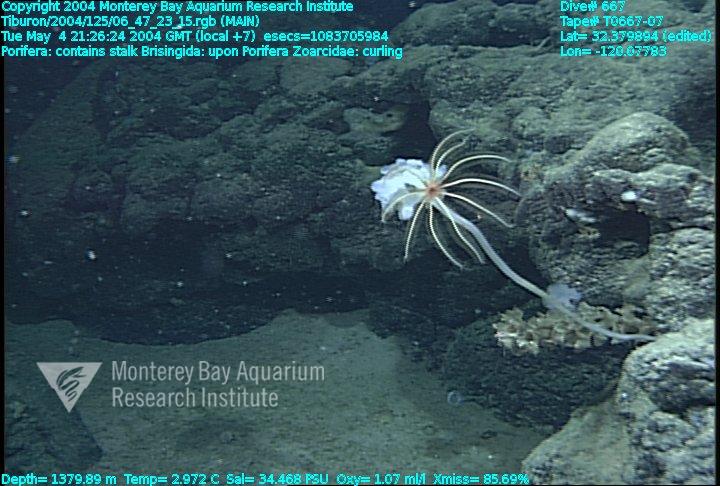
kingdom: Animalia
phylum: Porifera
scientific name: Porifera
